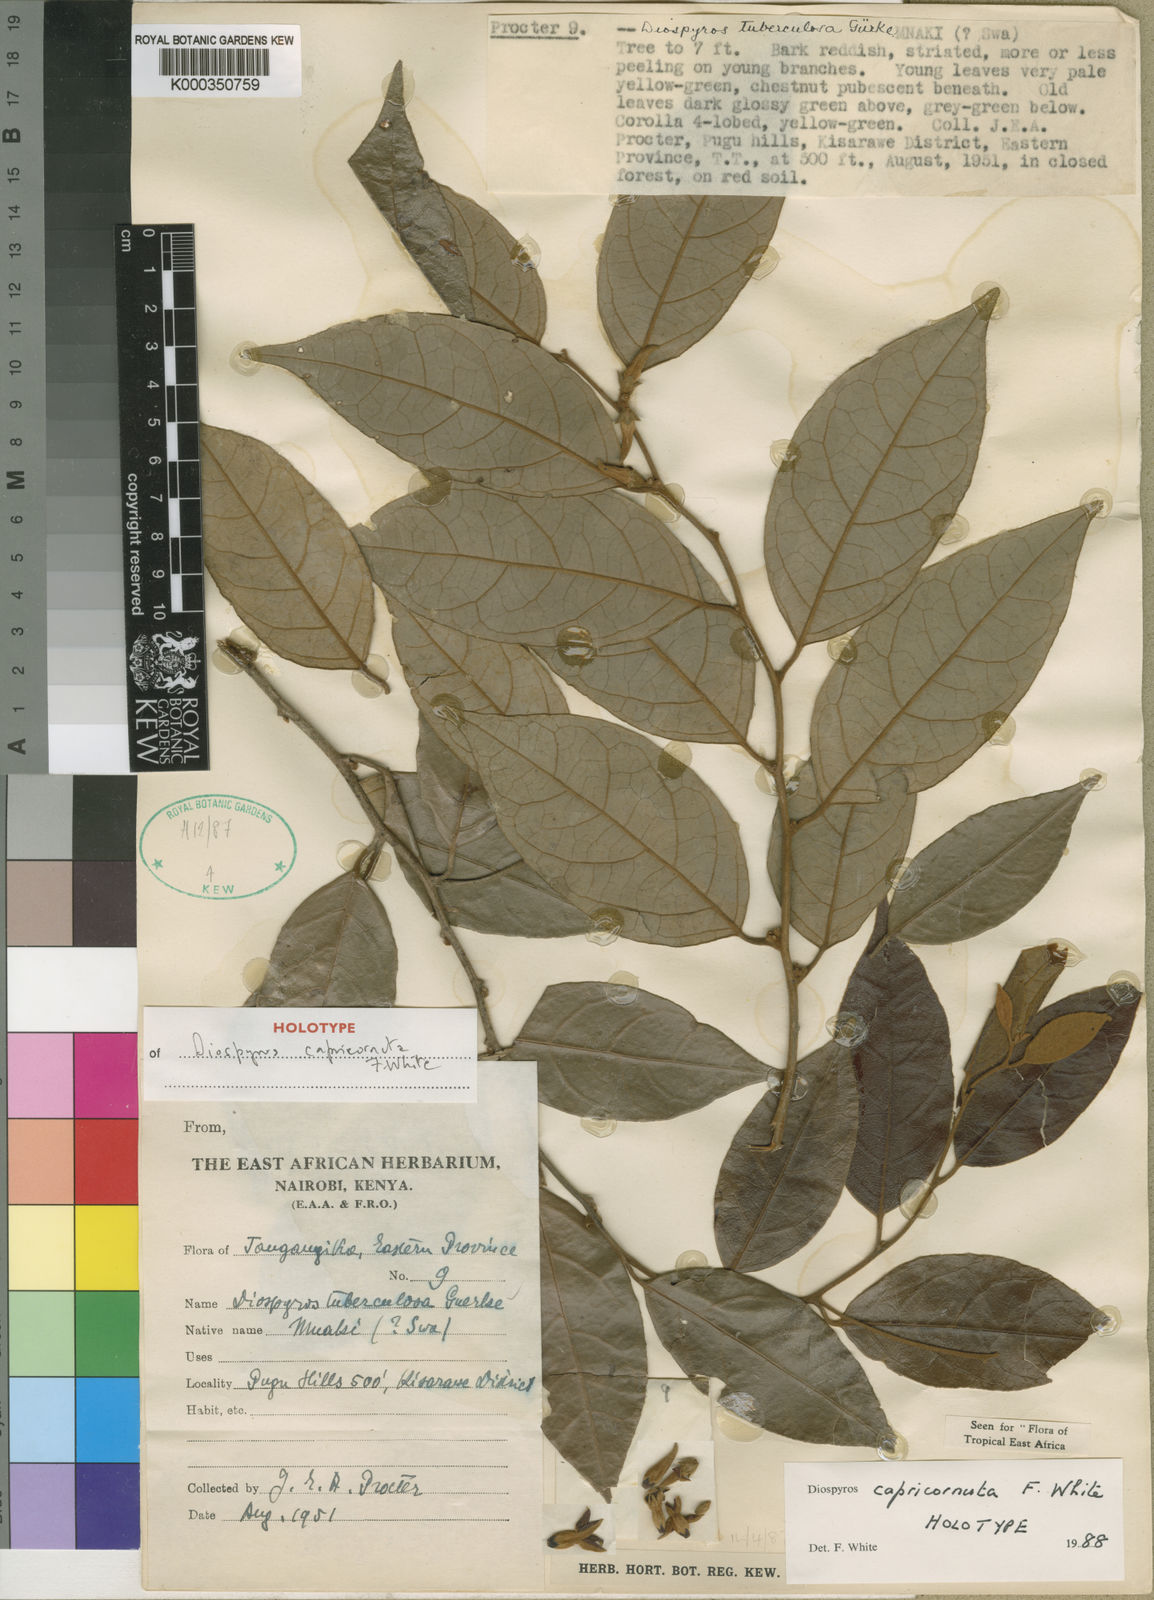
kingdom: Plantae
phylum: Tracheophyta
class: Magnoliopsida
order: Ericales
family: Ebenaceae
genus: Diospyros
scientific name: Diospyros capricornuta
